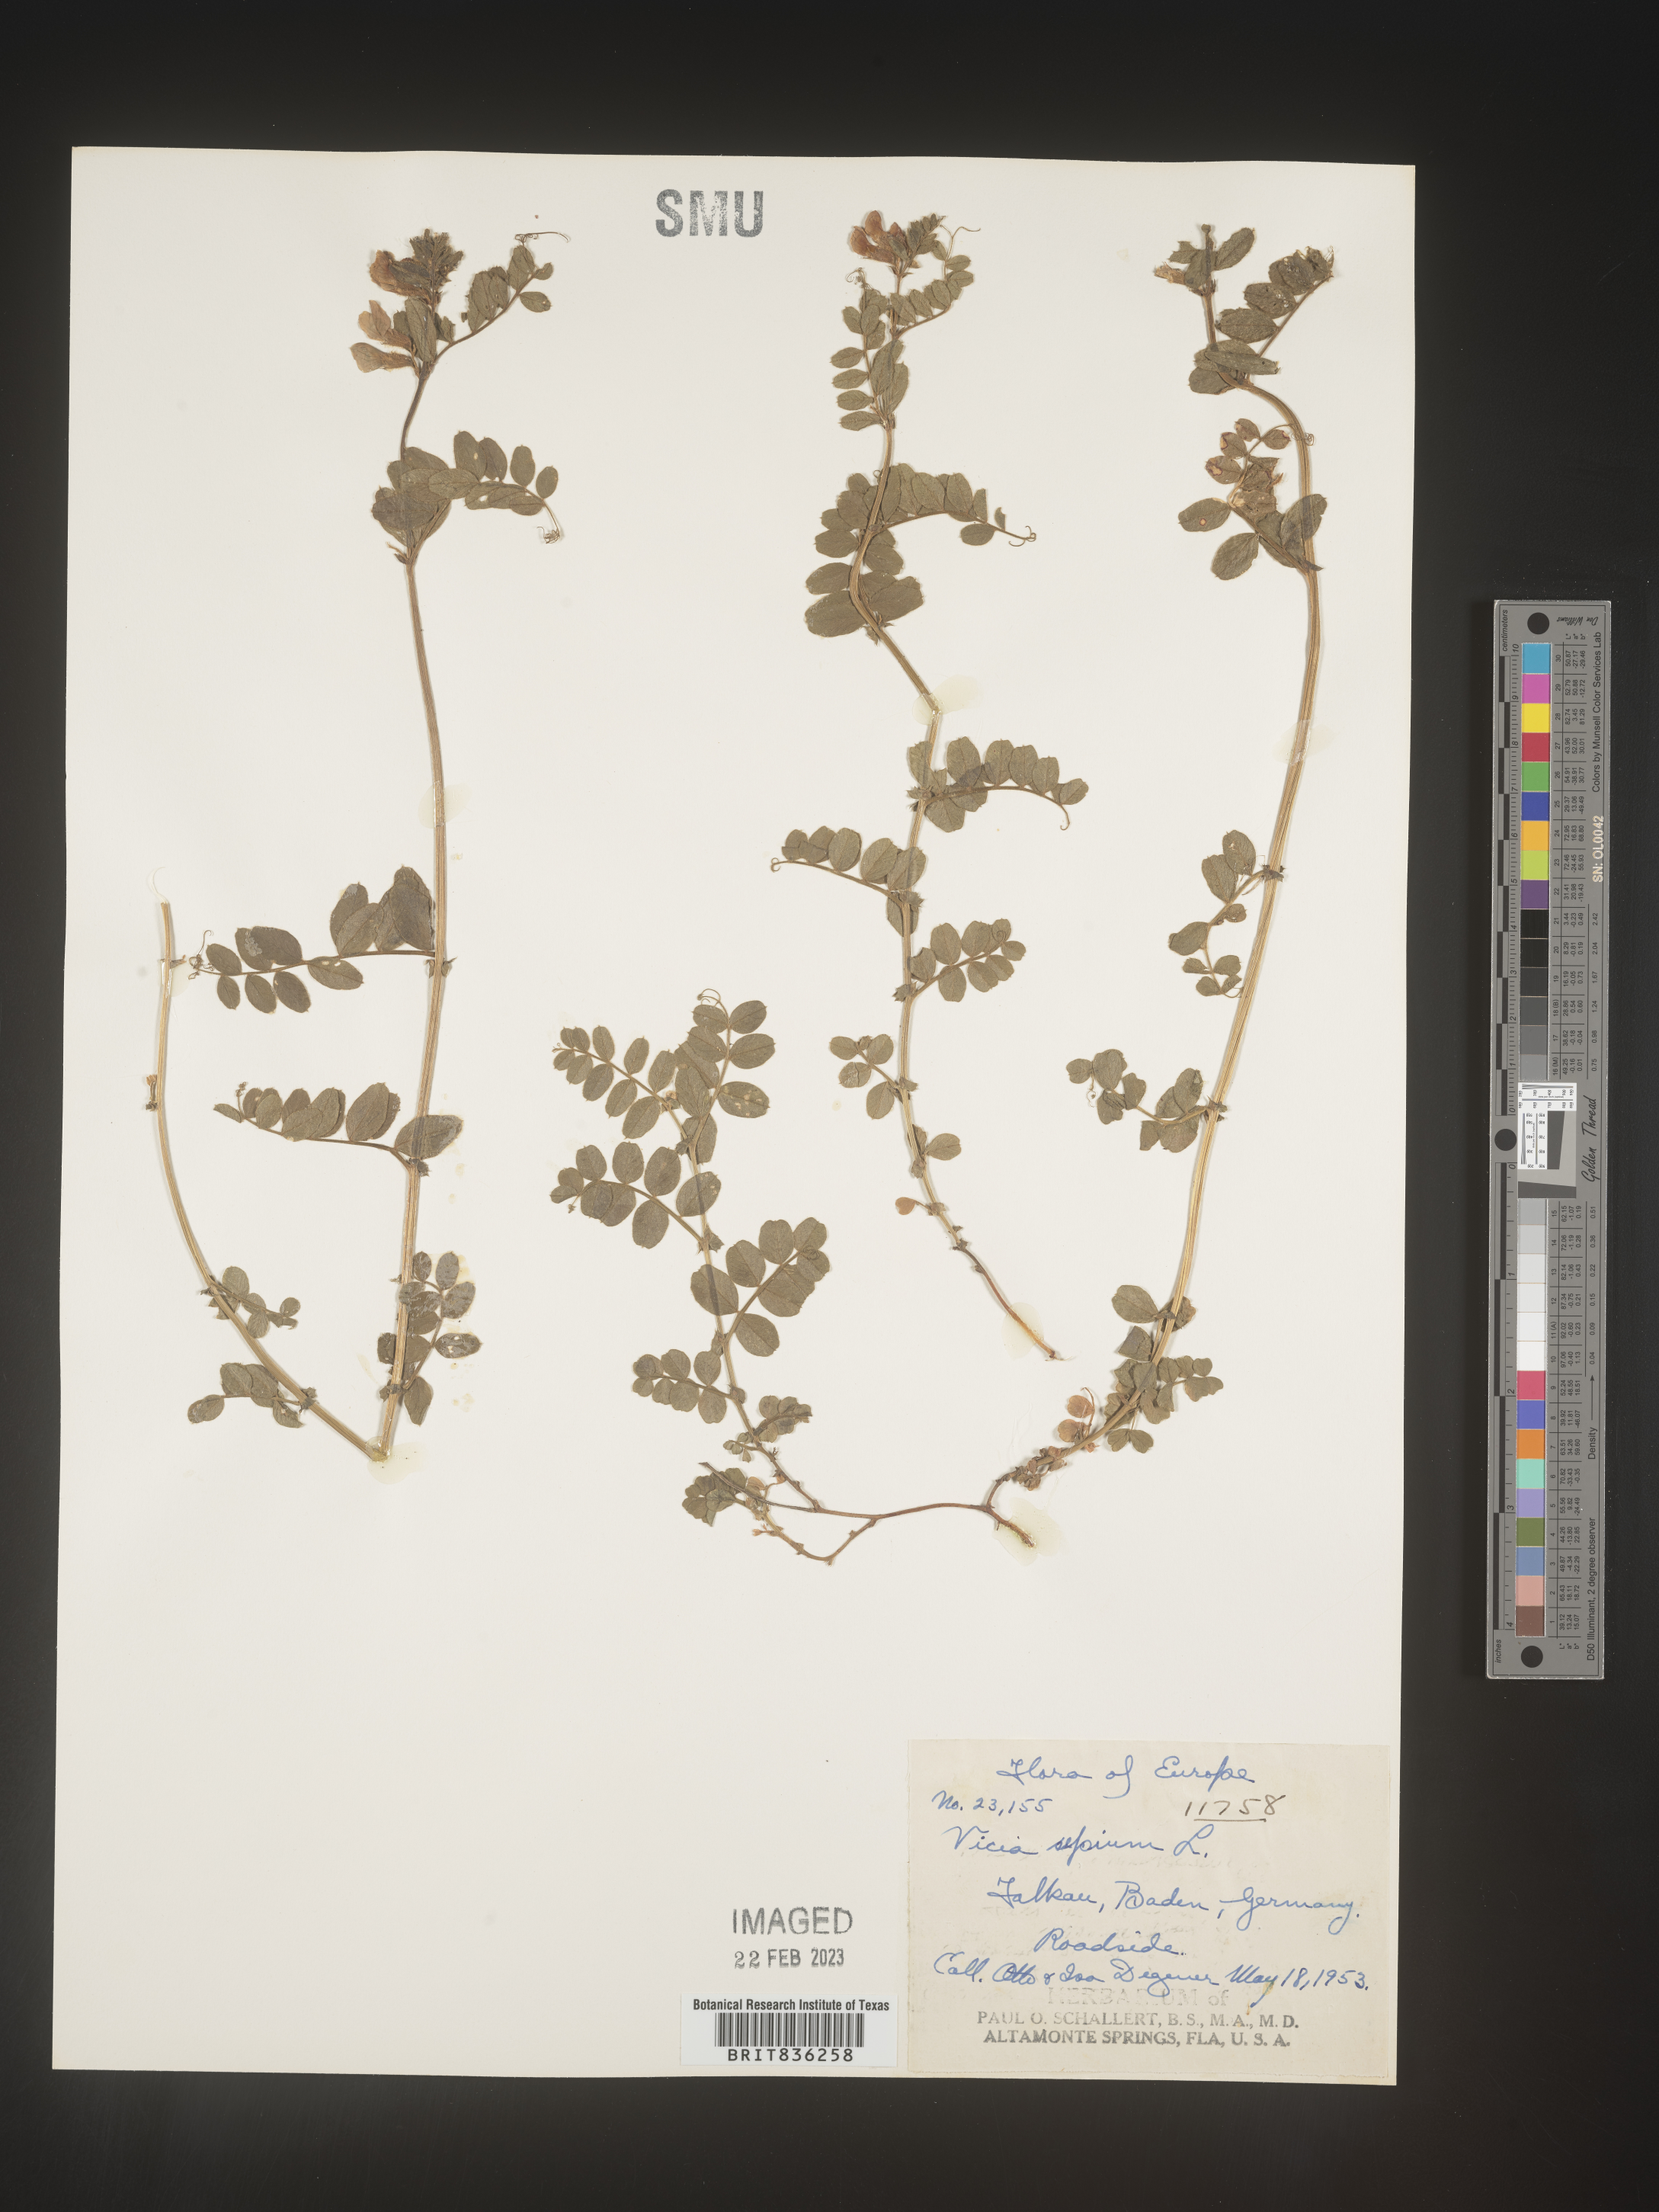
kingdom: Plantae
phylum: Tracheophyta
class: Magnoliopsida
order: Fabales
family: Fabaceae
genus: Vicia
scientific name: Vicia
